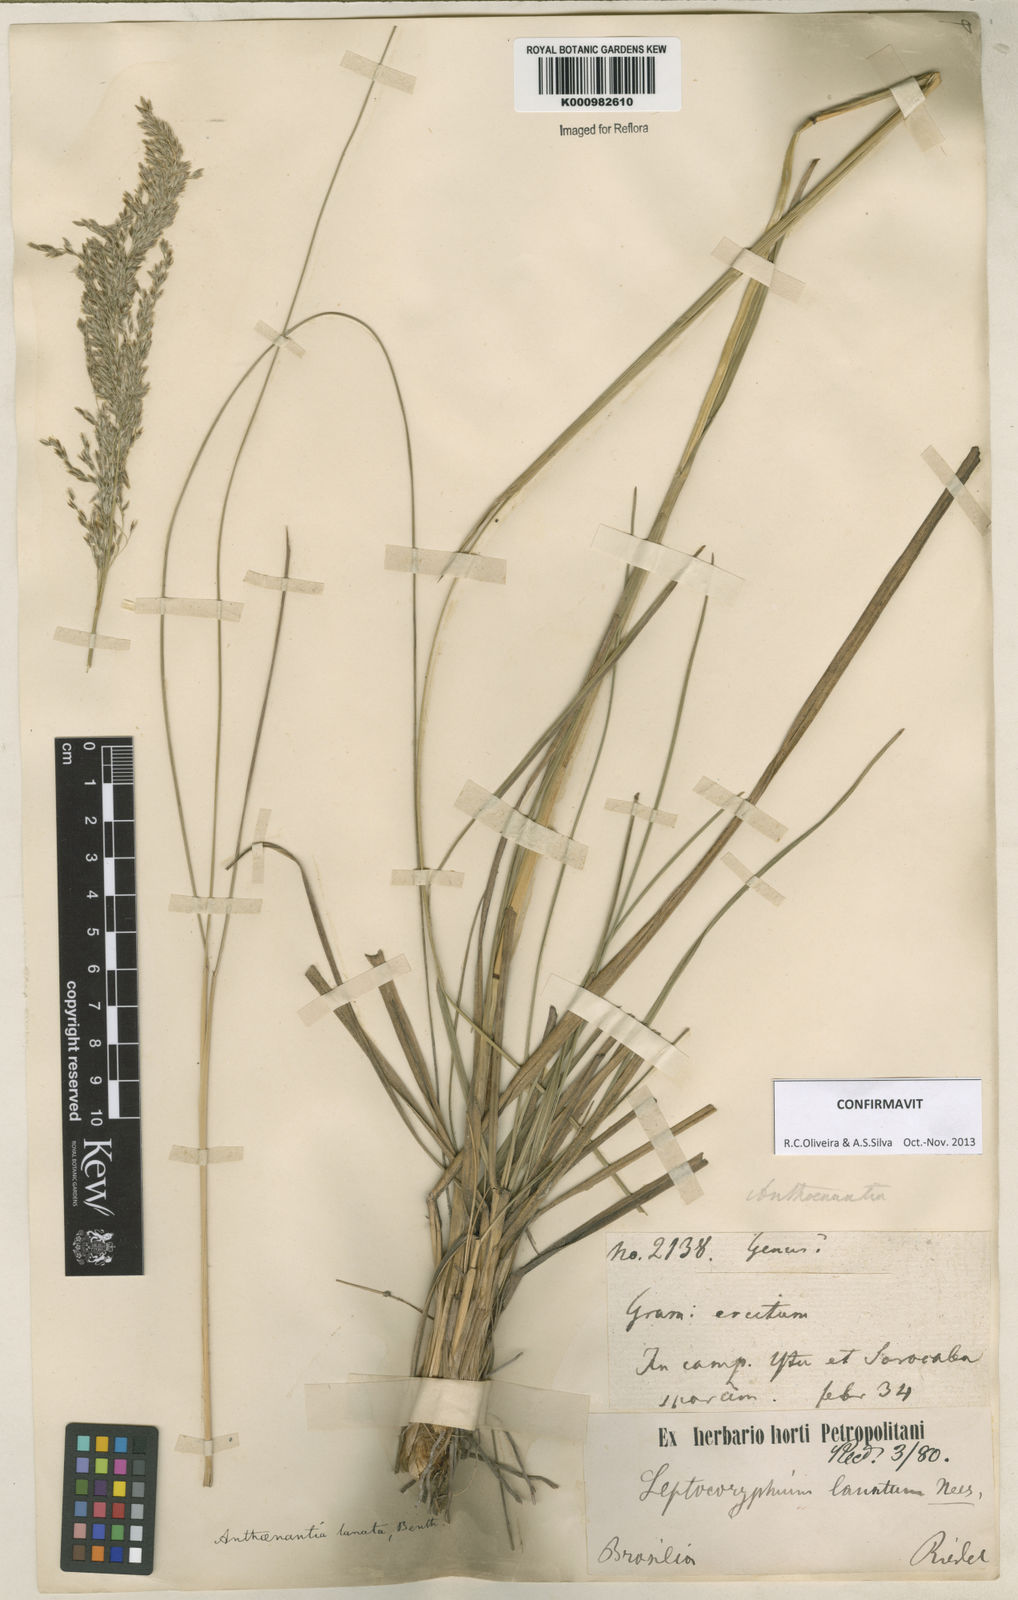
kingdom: Plantae
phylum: Tracheophyta
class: Liliopsida
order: Poales
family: Poaceae
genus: Anthenantia
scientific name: Anthenantia lanata
